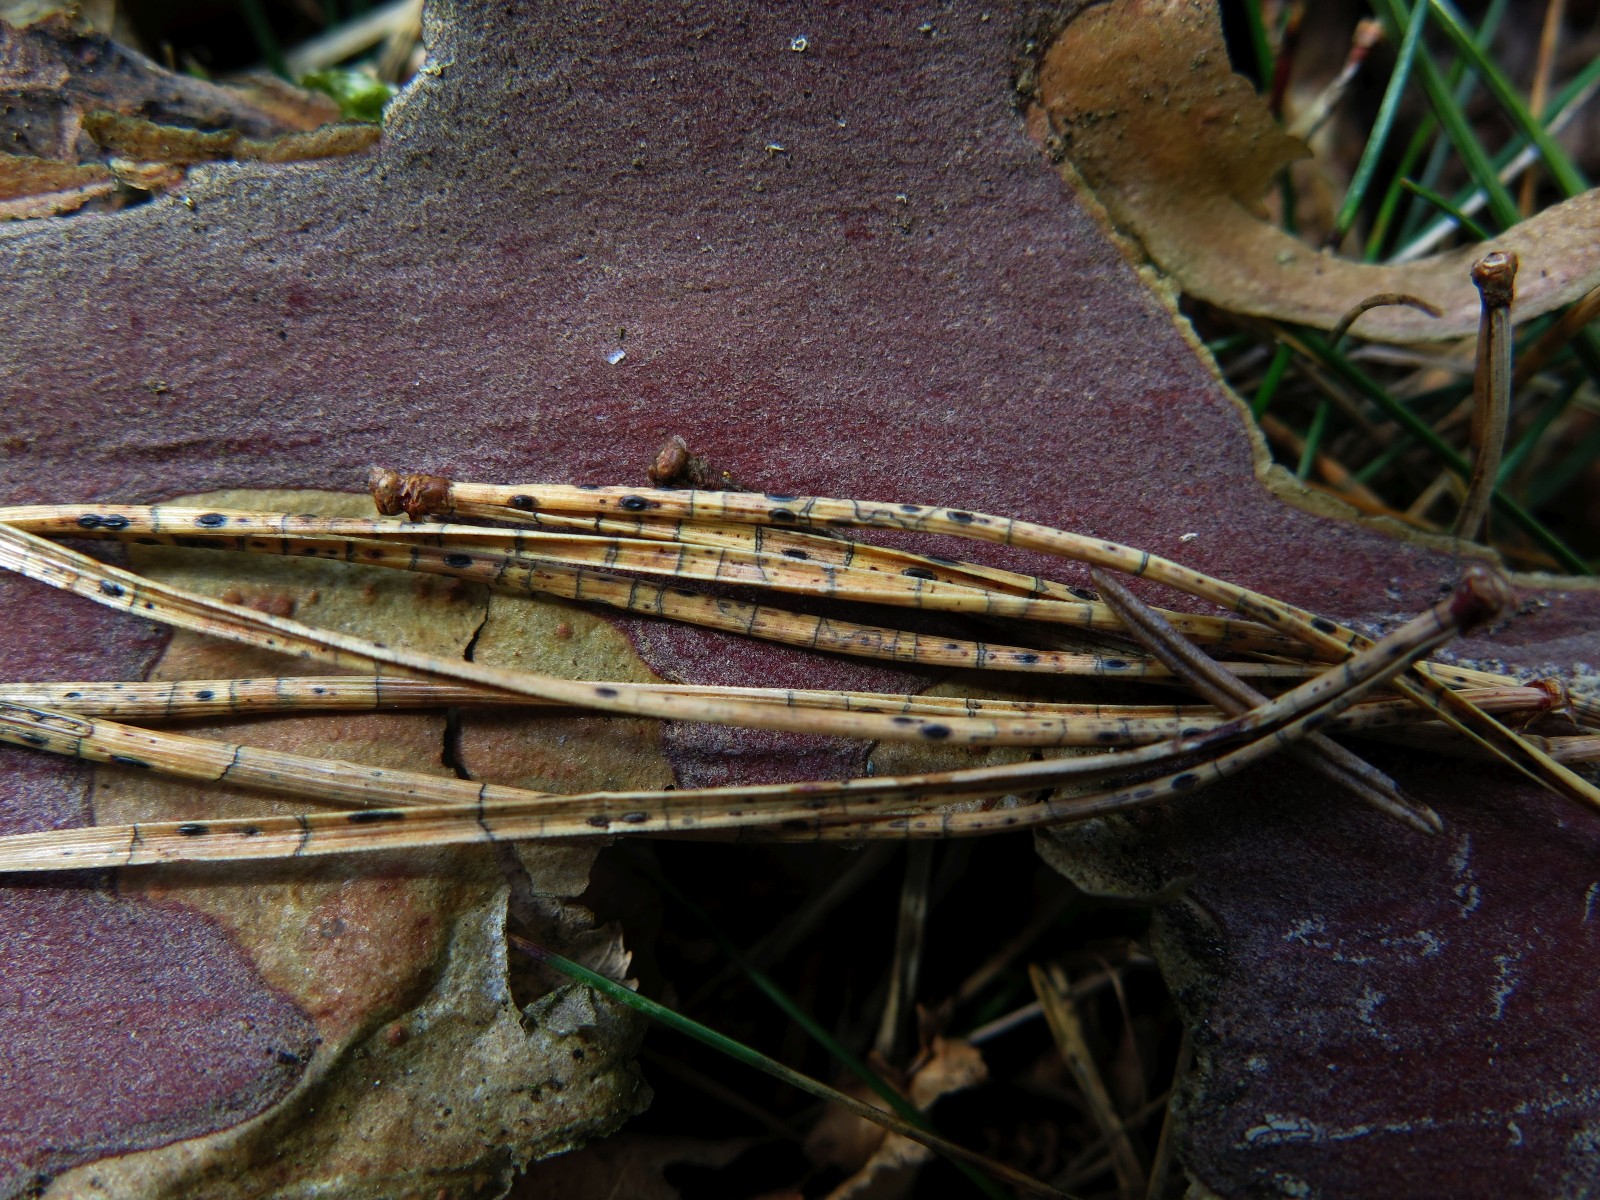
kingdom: Fungi
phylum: Ascomycota
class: Leotiomycetes
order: Rhytismatales
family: Rhytismataceae
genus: Lophodermium
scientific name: Lophodermium pinastri
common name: fyrre-fureplet
